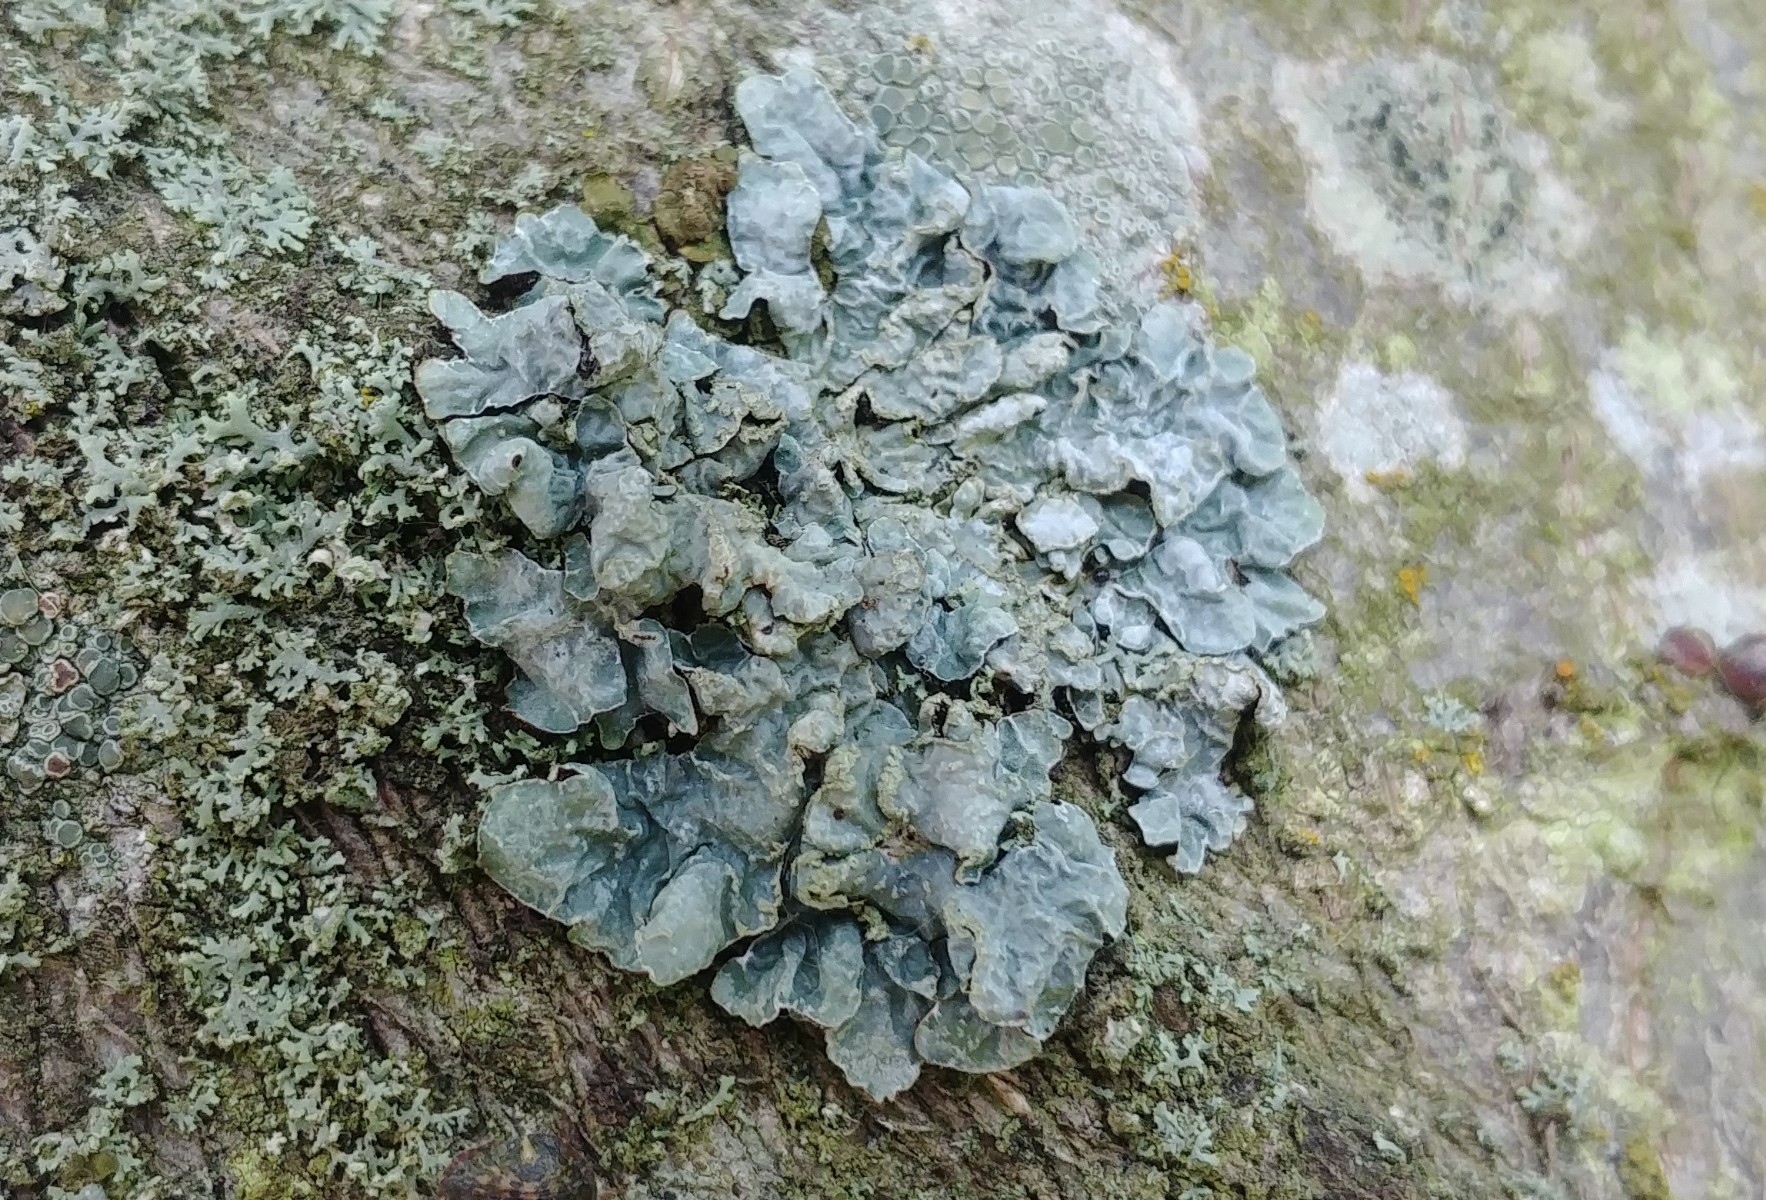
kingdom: Fungi
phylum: Ascomycota
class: Lecanoromycetes
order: Lecanorales
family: Parmeliaceae
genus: Parmelia
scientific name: Parmelia sulcata
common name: rynket skållav
